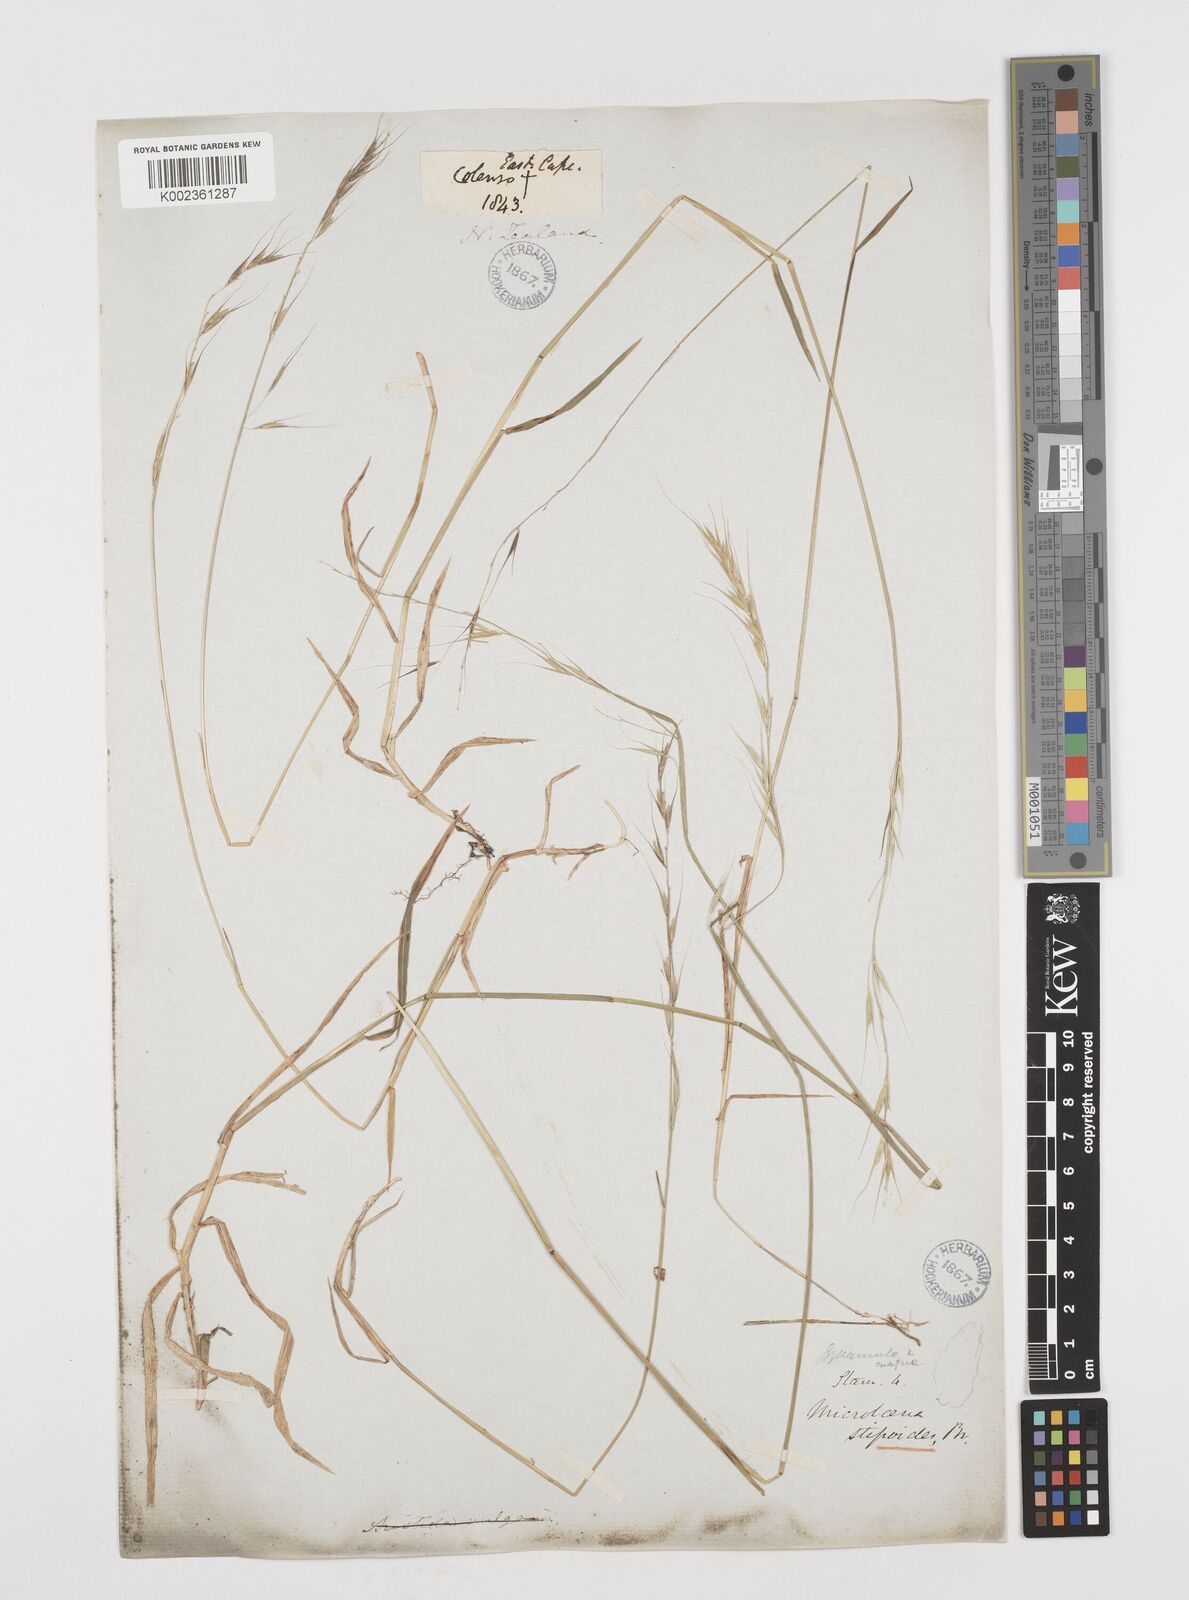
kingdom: Plantae
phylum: Tracheophyta
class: Liliopsida
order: Poales
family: Poaceae
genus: Microlaena
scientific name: Microlaena stipoides
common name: Meadow ricegrass
